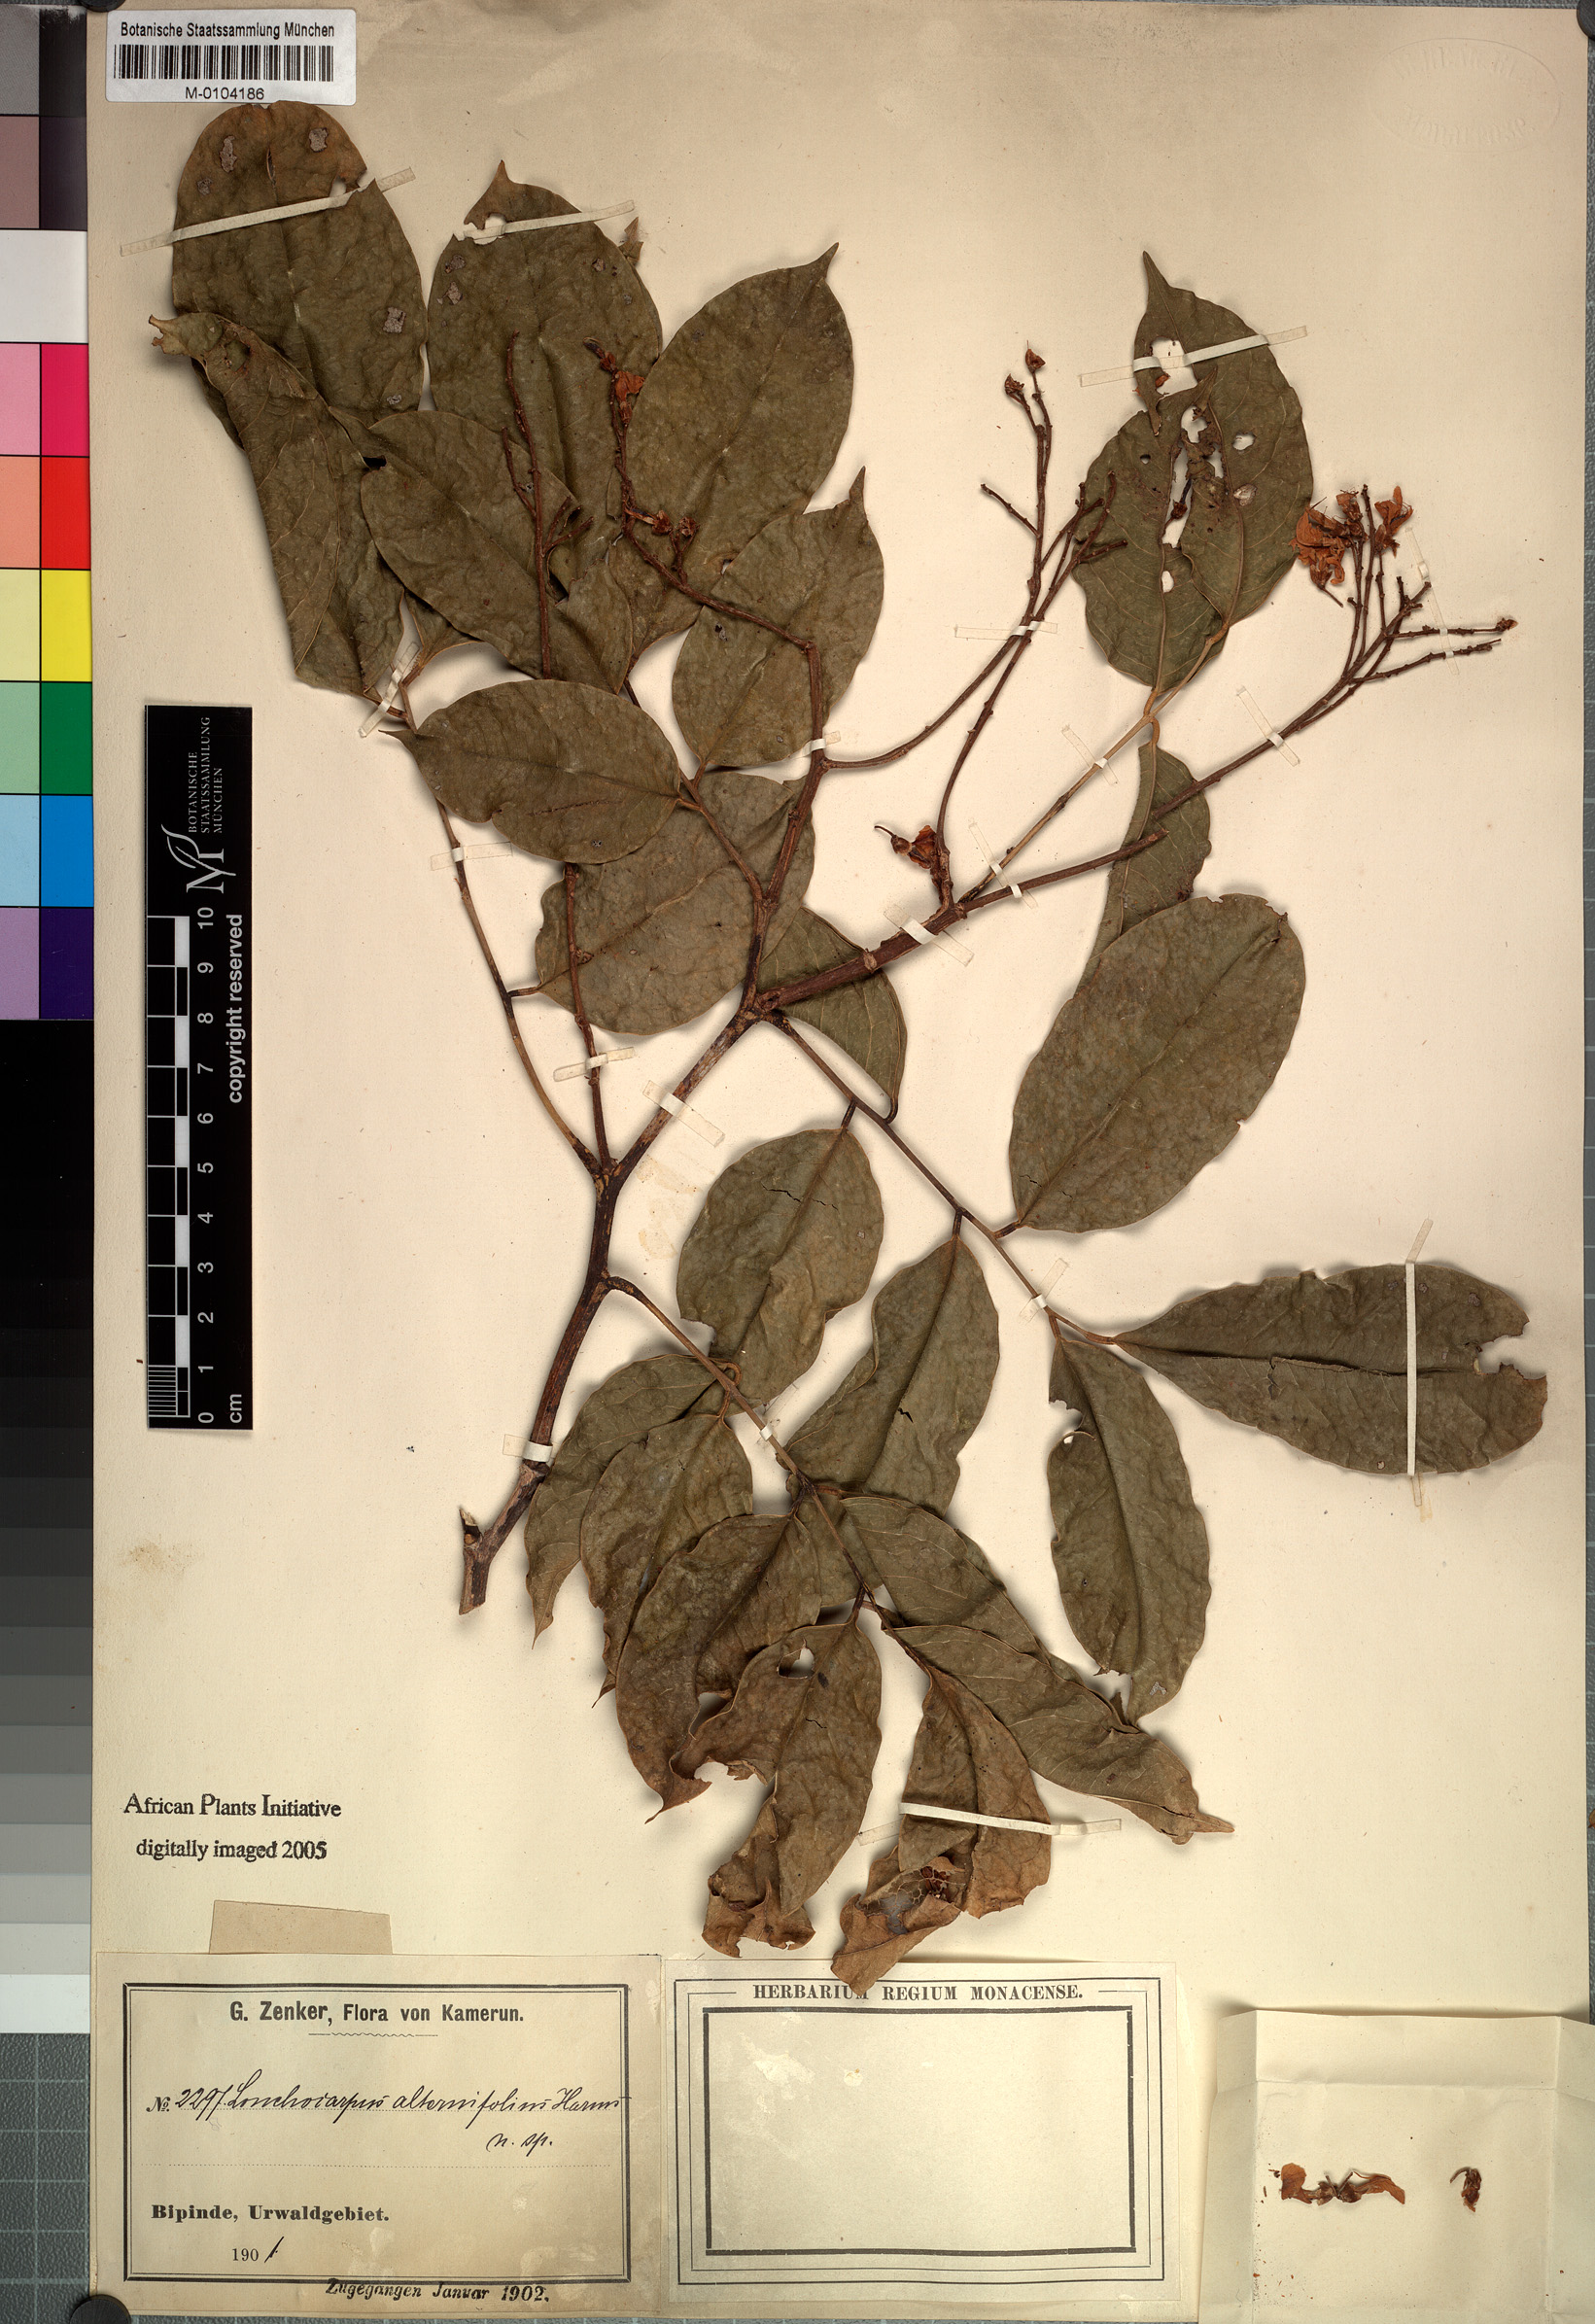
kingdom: Plantae
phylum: Tracheophyta
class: Magnoliopsida
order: Fabales
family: Fabaceae
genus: Lonchocarpus
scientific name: Lonchocarpus
